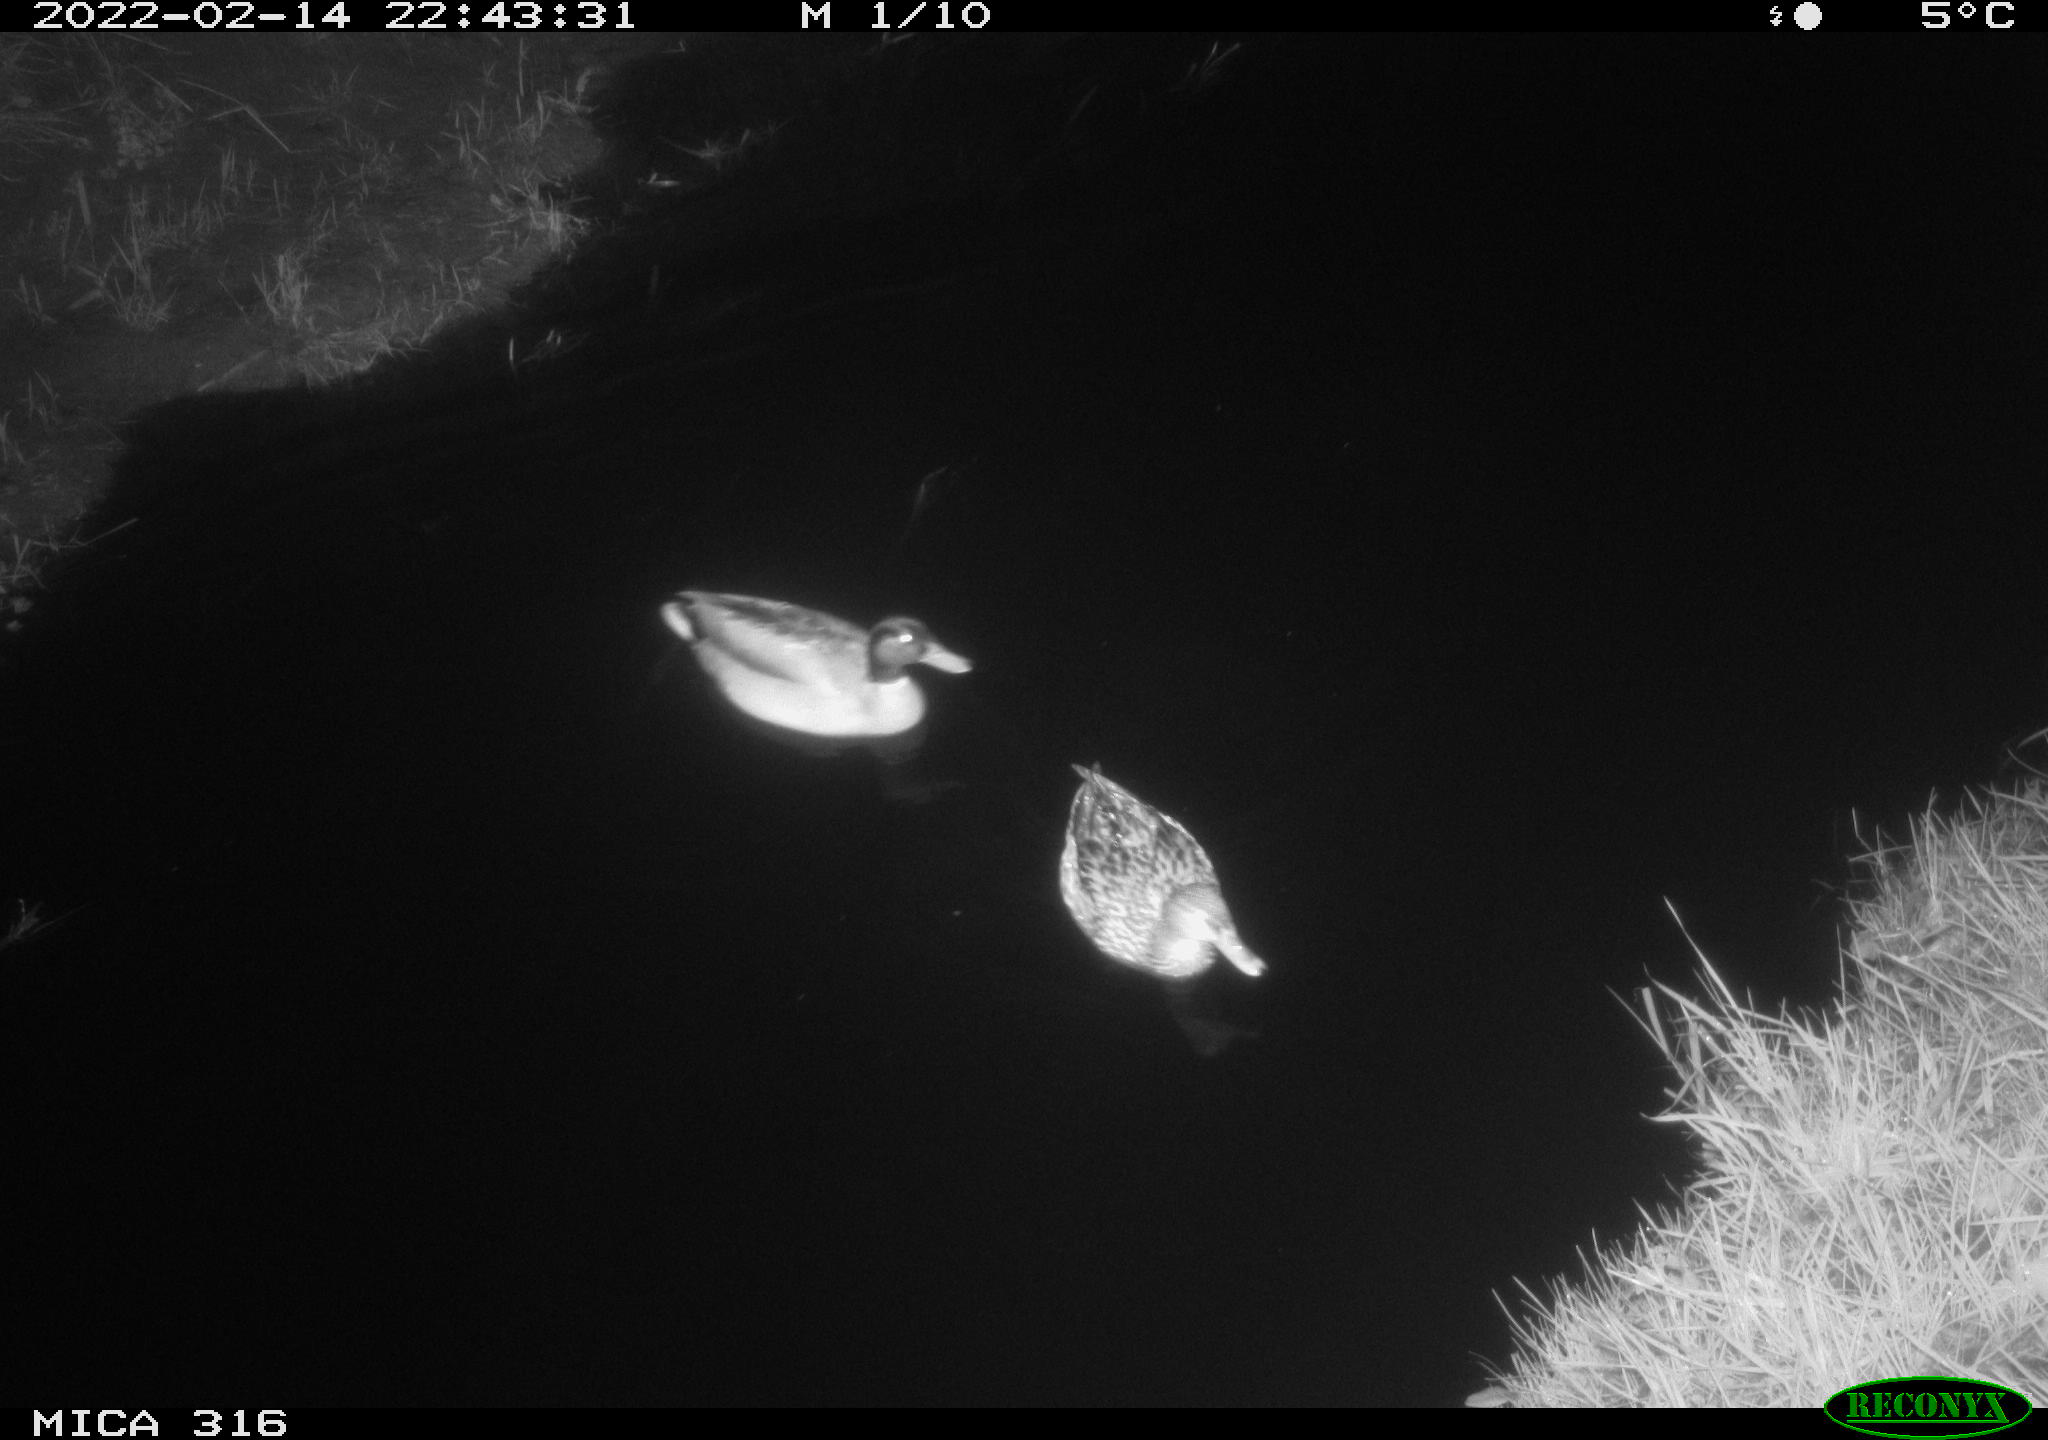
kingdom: Animalia
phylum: Chordata
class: Aves
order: Anseriformes
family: Anatidae
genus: Anas
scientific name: Anas platyrhynchos
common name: Mallard
